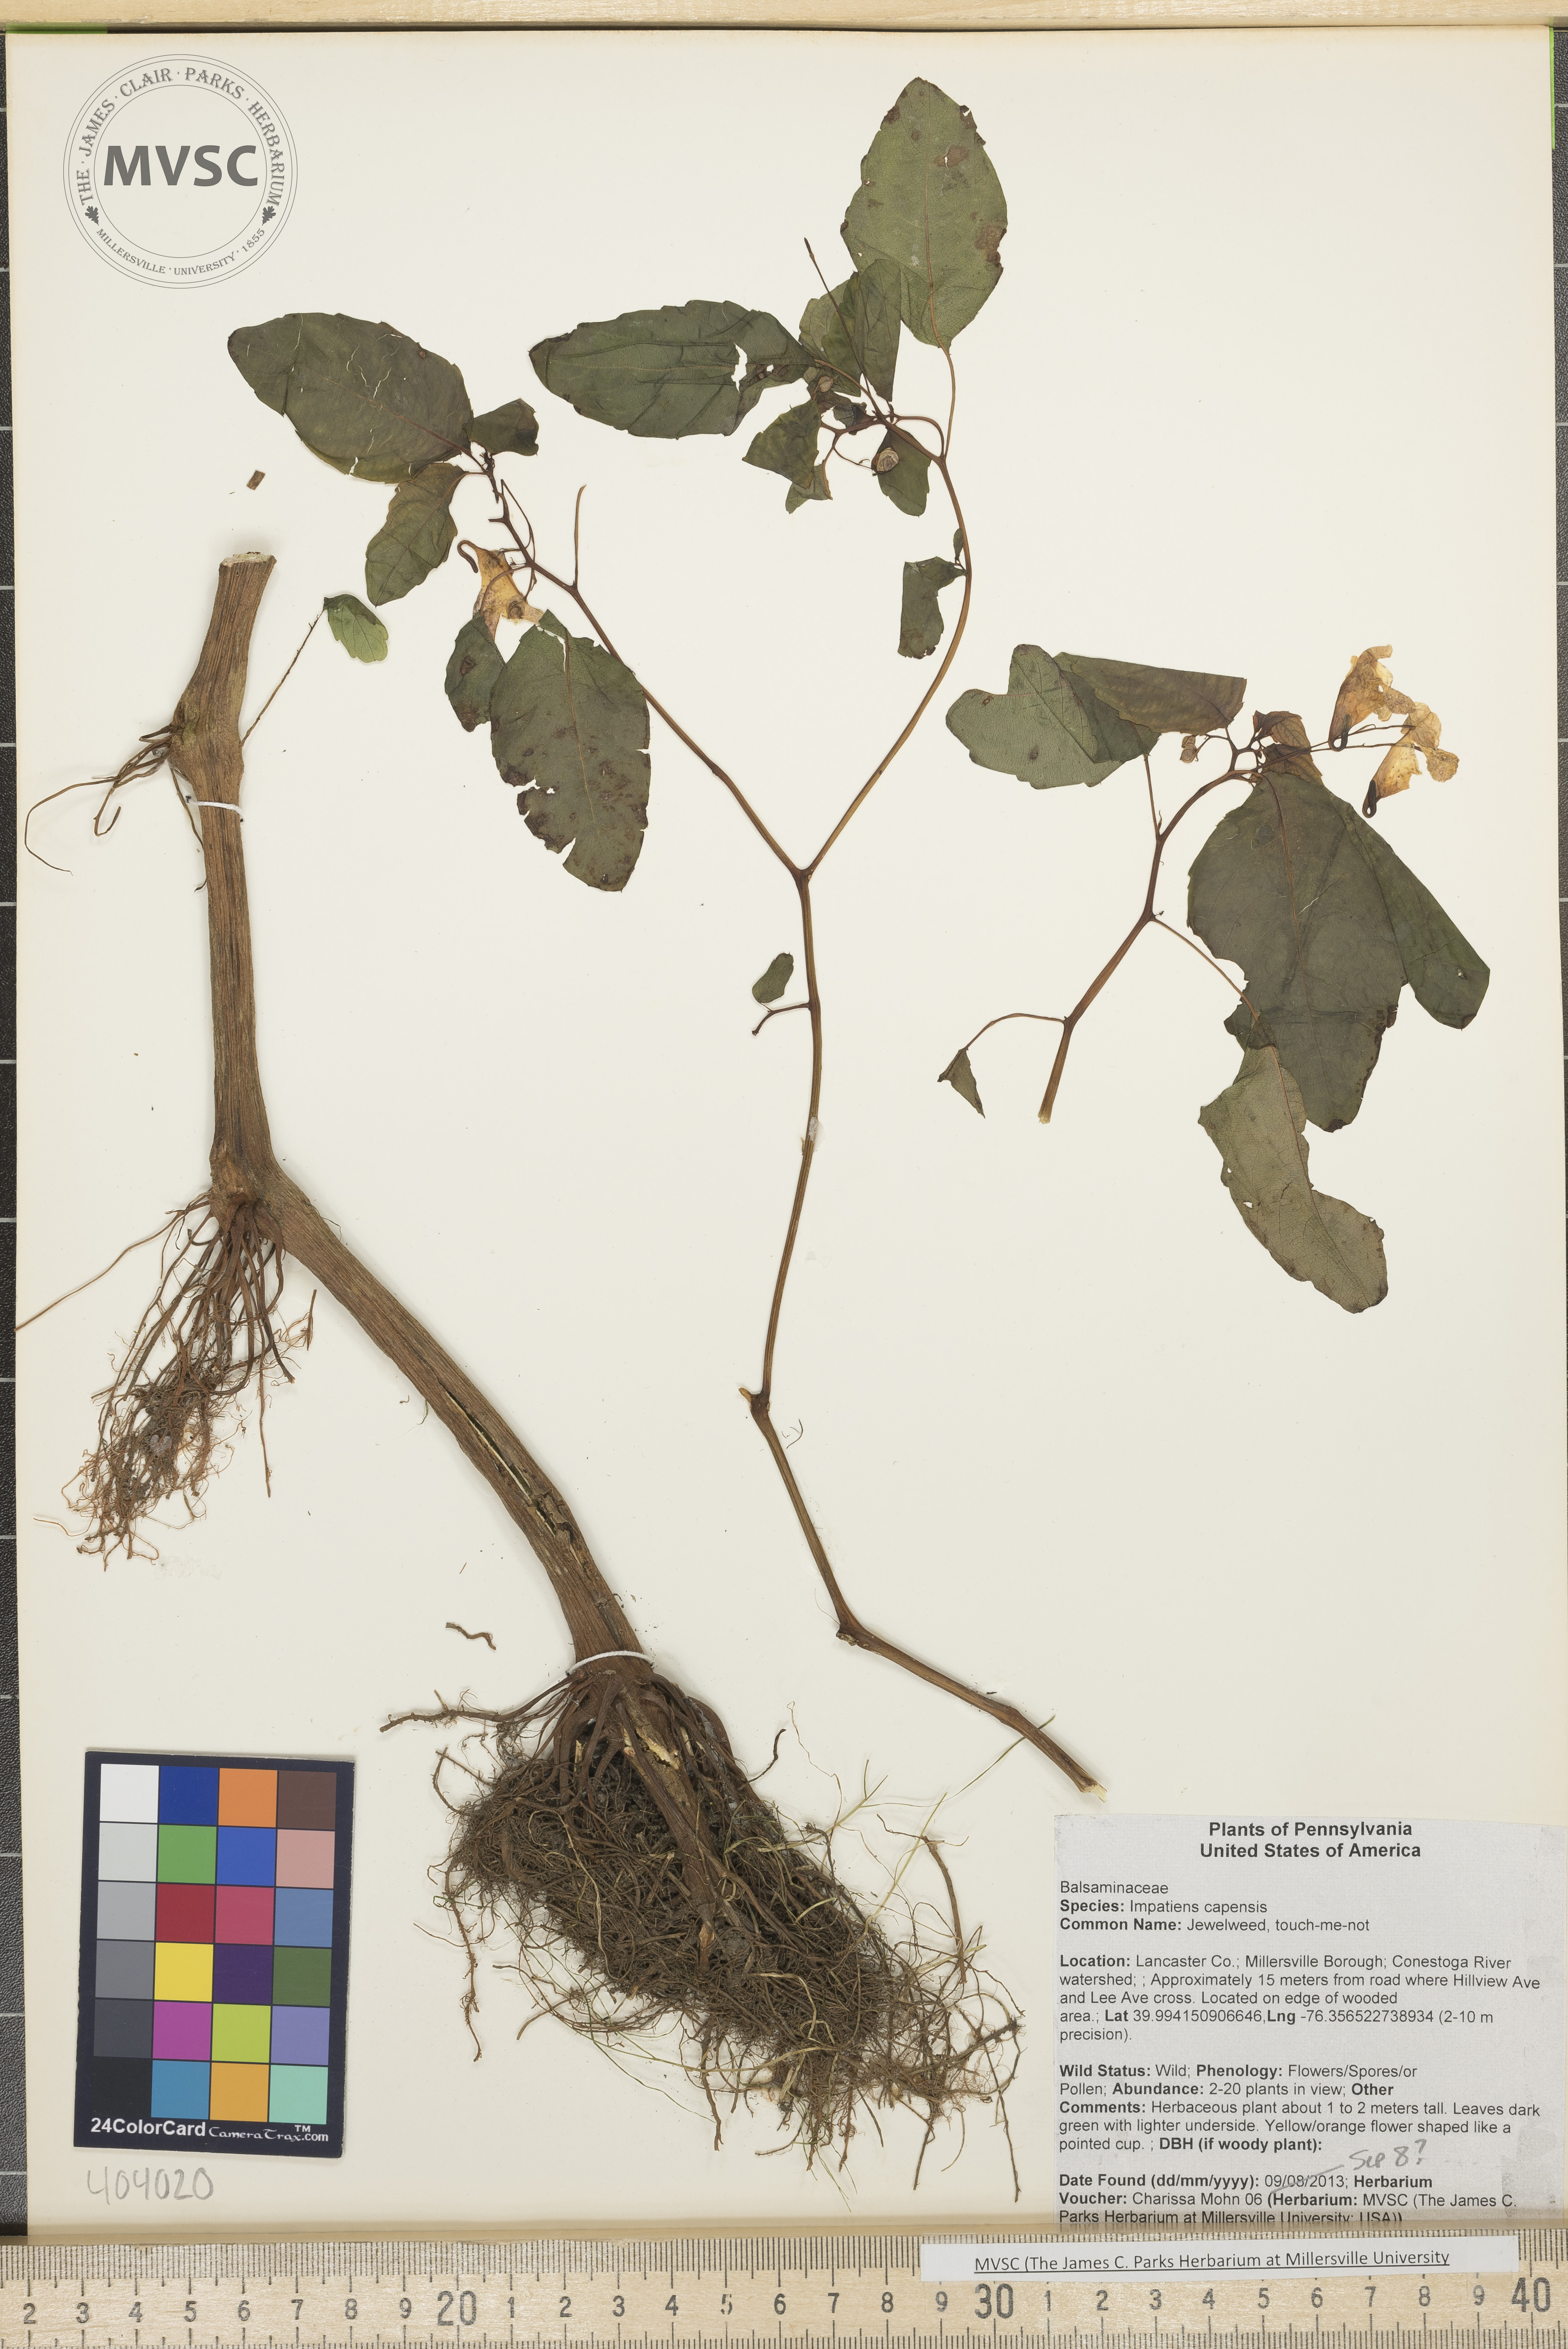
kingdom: Plantae
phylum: Tracheophyta
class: Magnoliopsida
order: Ericales
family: Balsaminaceae
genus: Impatiens
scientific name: Impatiens capensis
